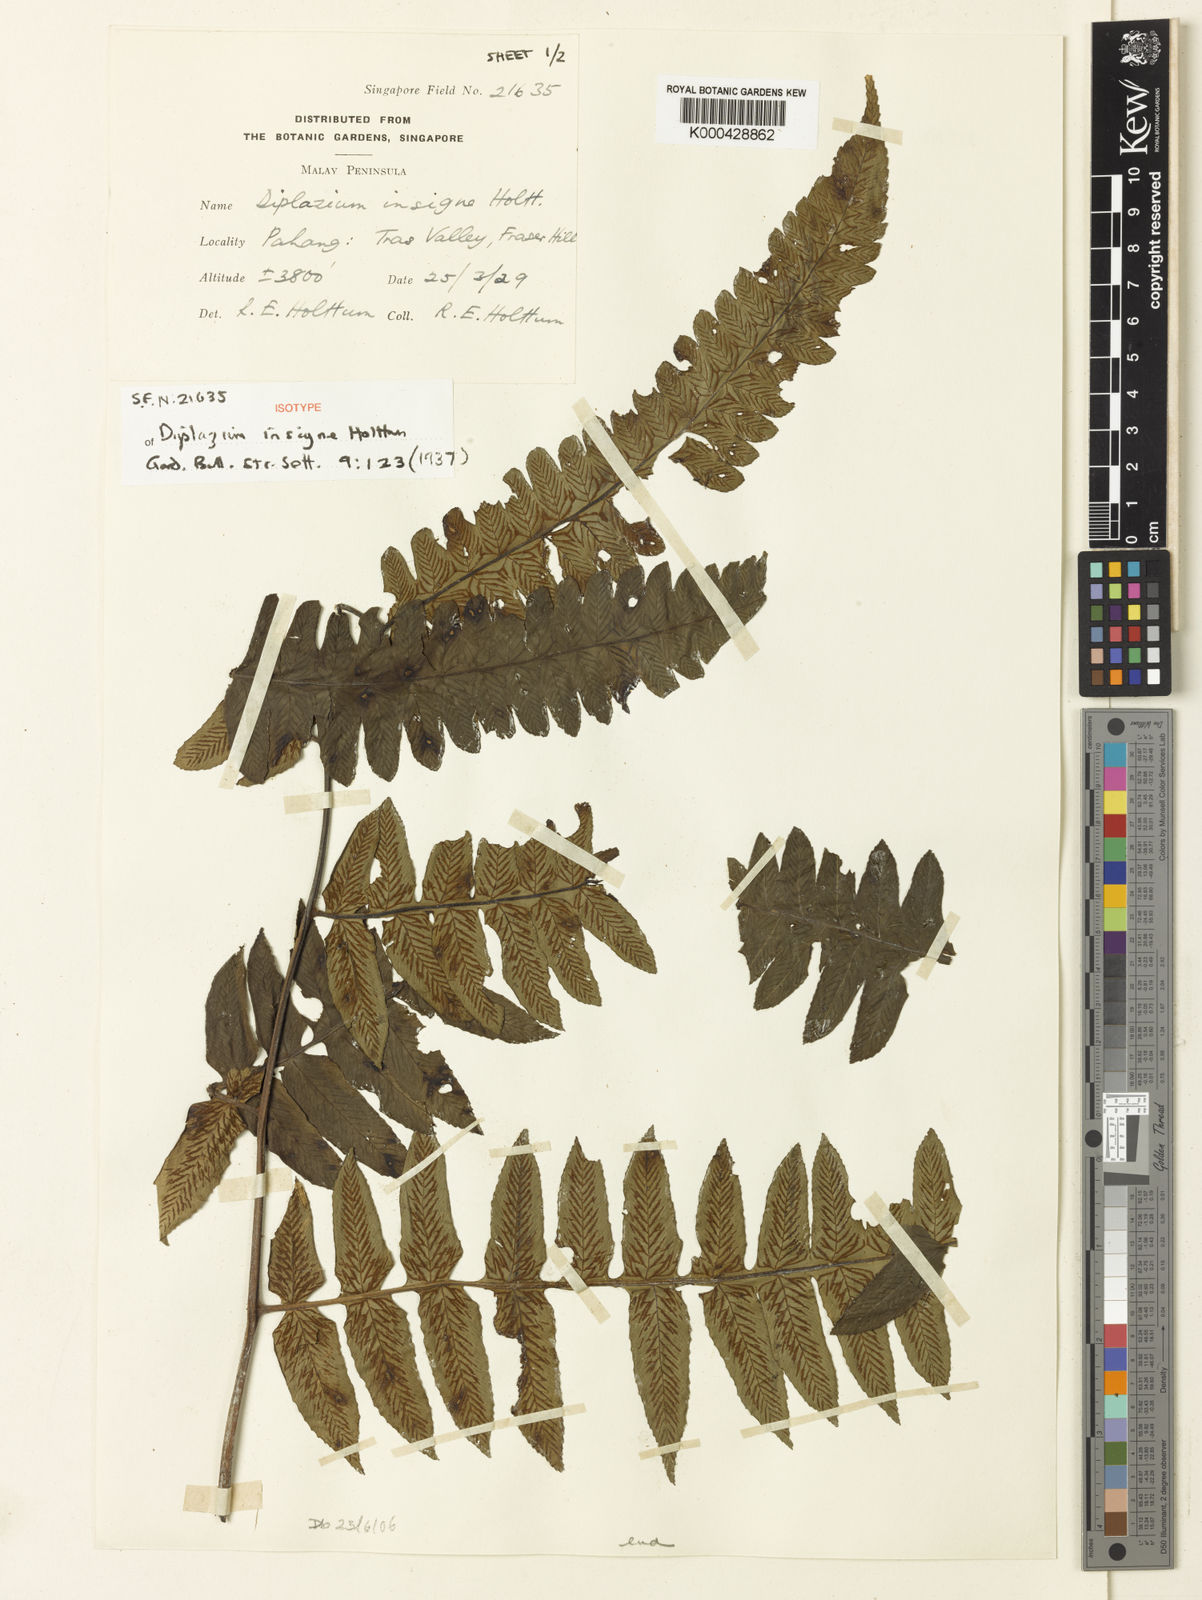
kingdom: Plantae
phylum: Tracheophyta
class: Polypodiopsida
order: Polypodiales
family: Athyriaceae
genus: Diplazium
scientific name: Diplazium insigne
